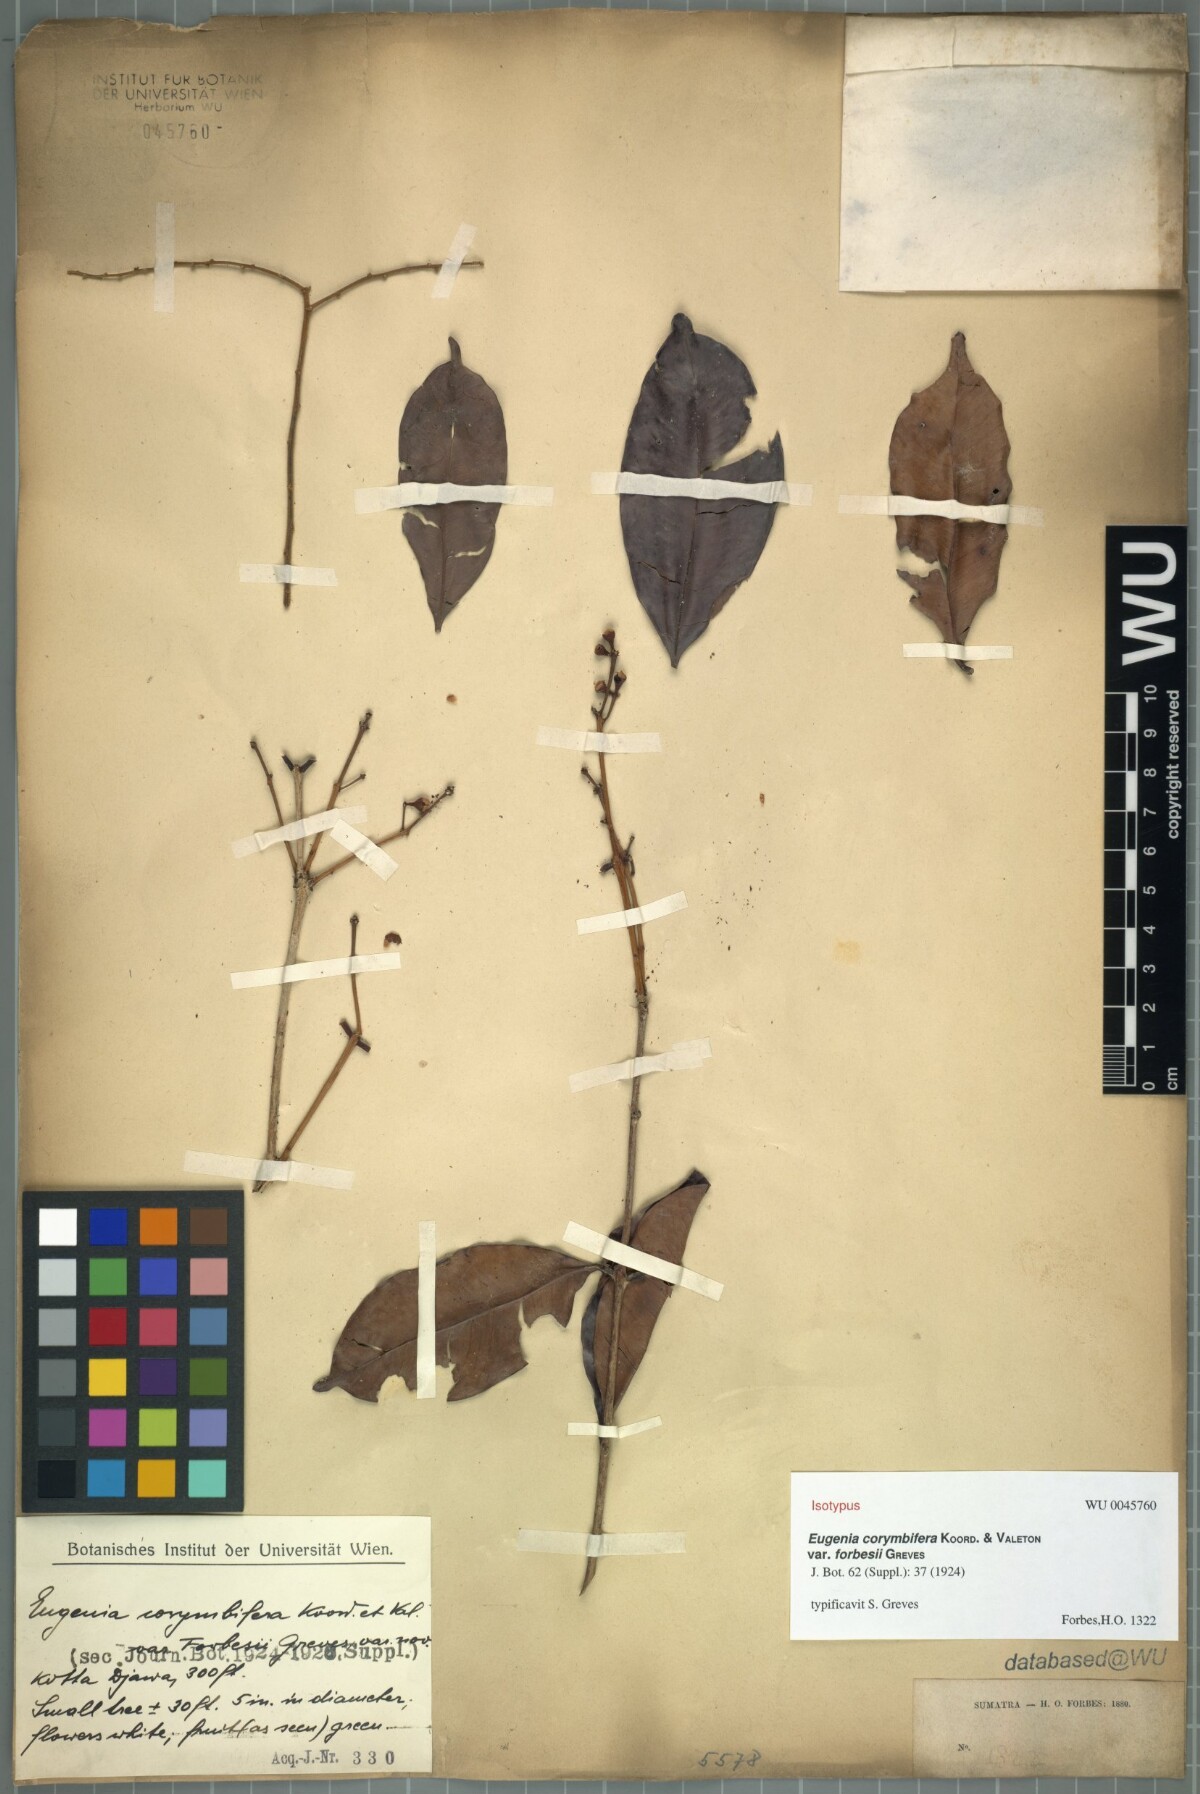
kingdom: Plantae
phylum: Tracheophyta
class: Magnoliopsida
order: Myrtales
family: Myrtaceae
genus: Syzygium
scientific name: Syzygium corymbosum
